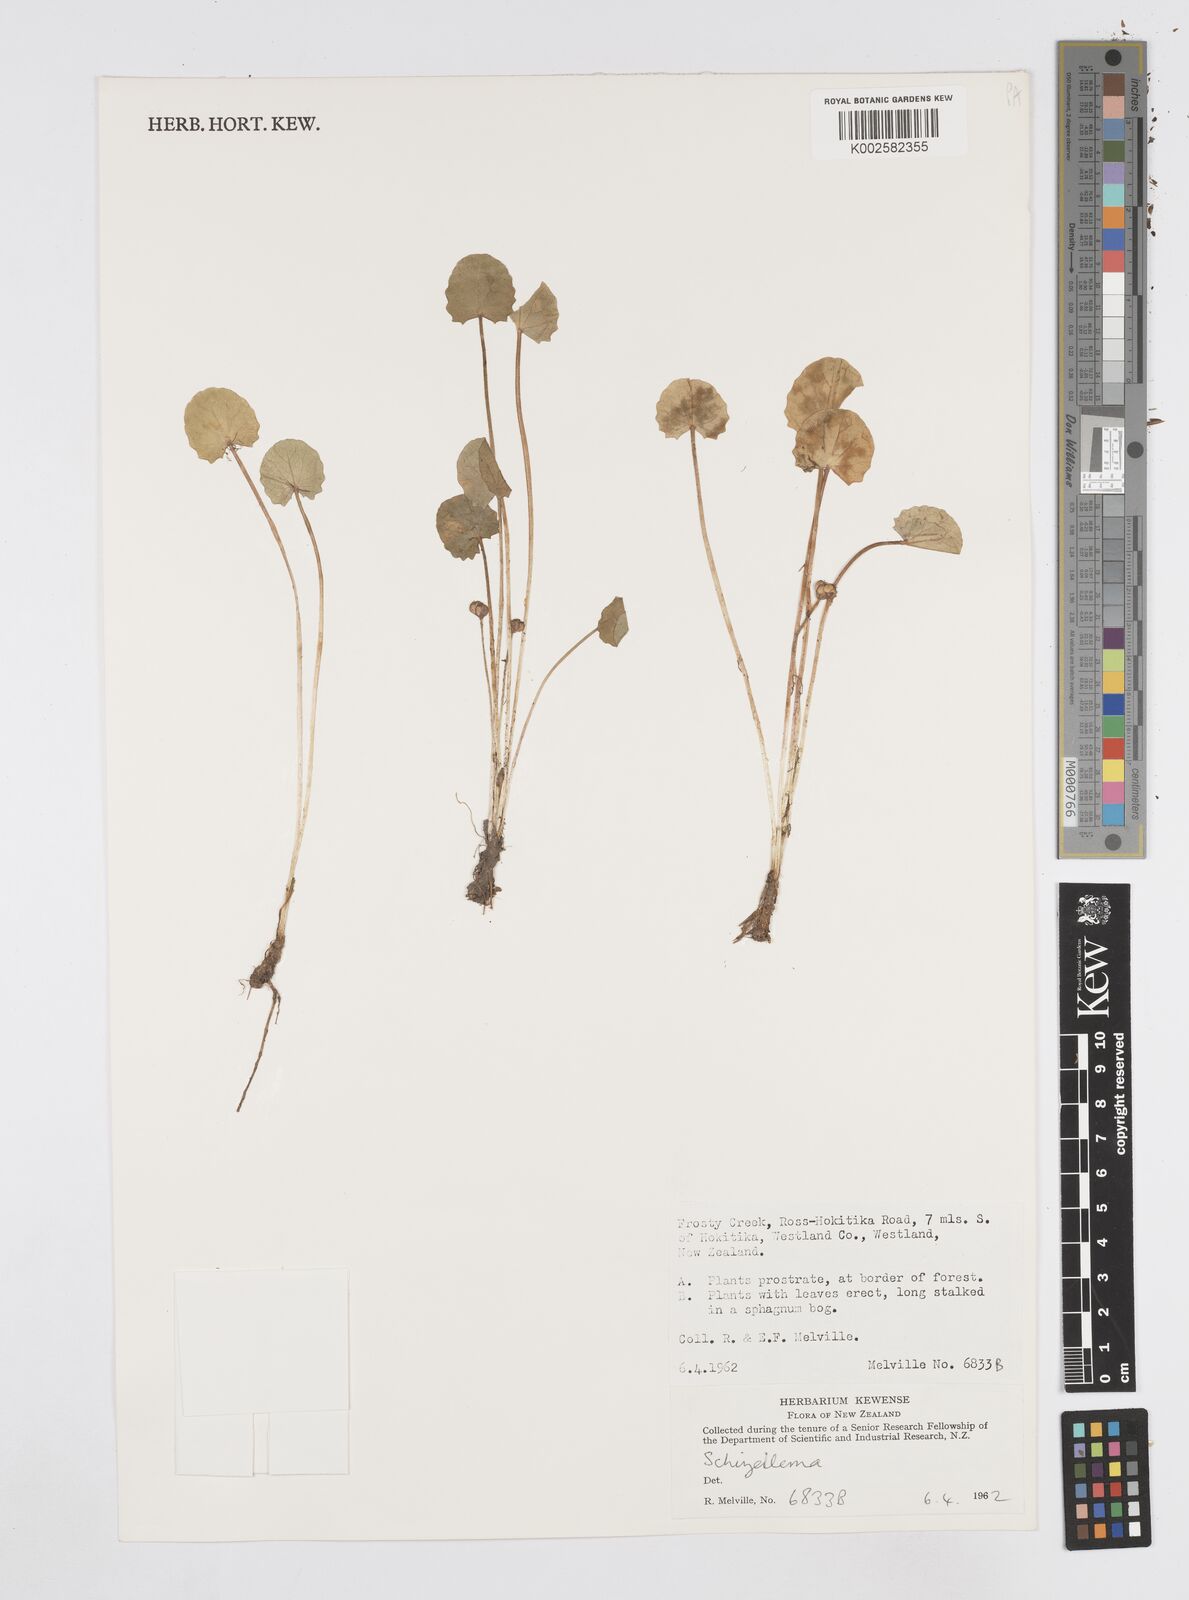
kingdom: Plantae
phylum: Tracheophyta
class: Magnoliopsida
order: Apiales
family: Apiaceae
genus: Azorella
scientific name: Azorella
